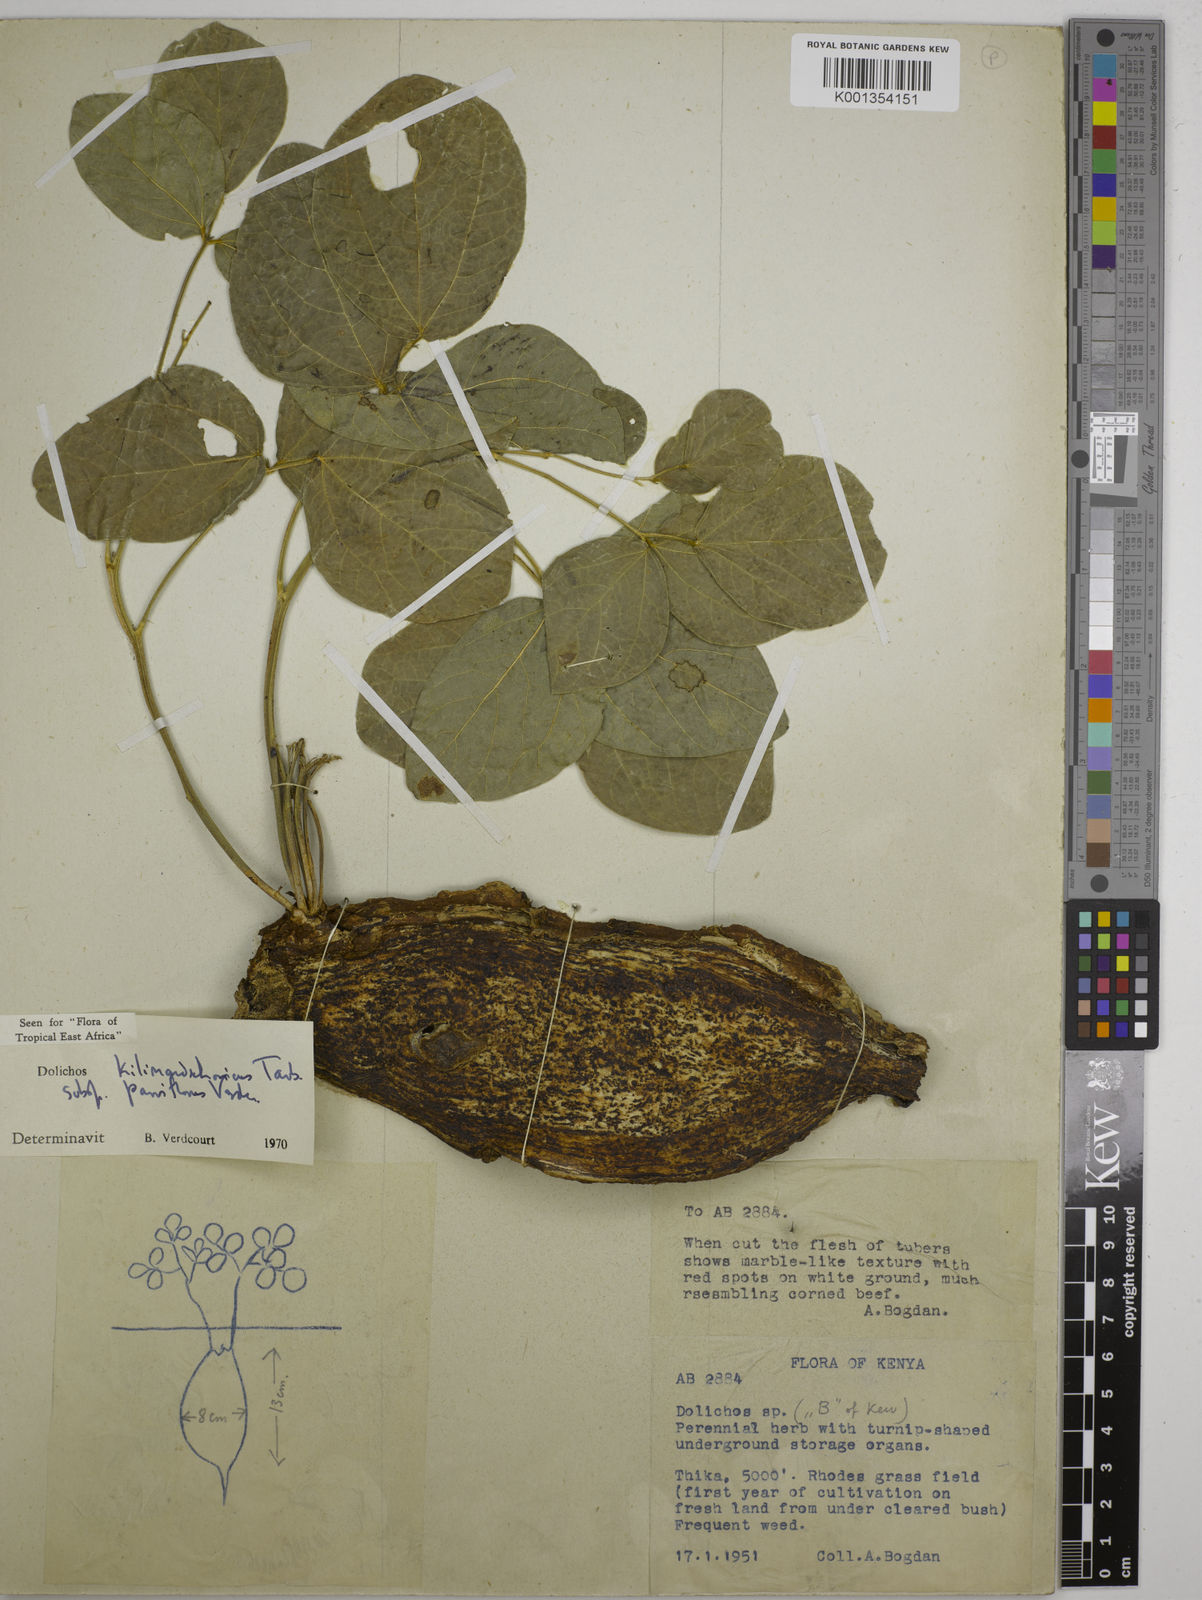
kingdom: Plantae
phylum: Tracheophyta
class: Magnoliopsida
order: Fabales
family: Fabaceae
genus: Dolichos
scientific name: Dolichos
